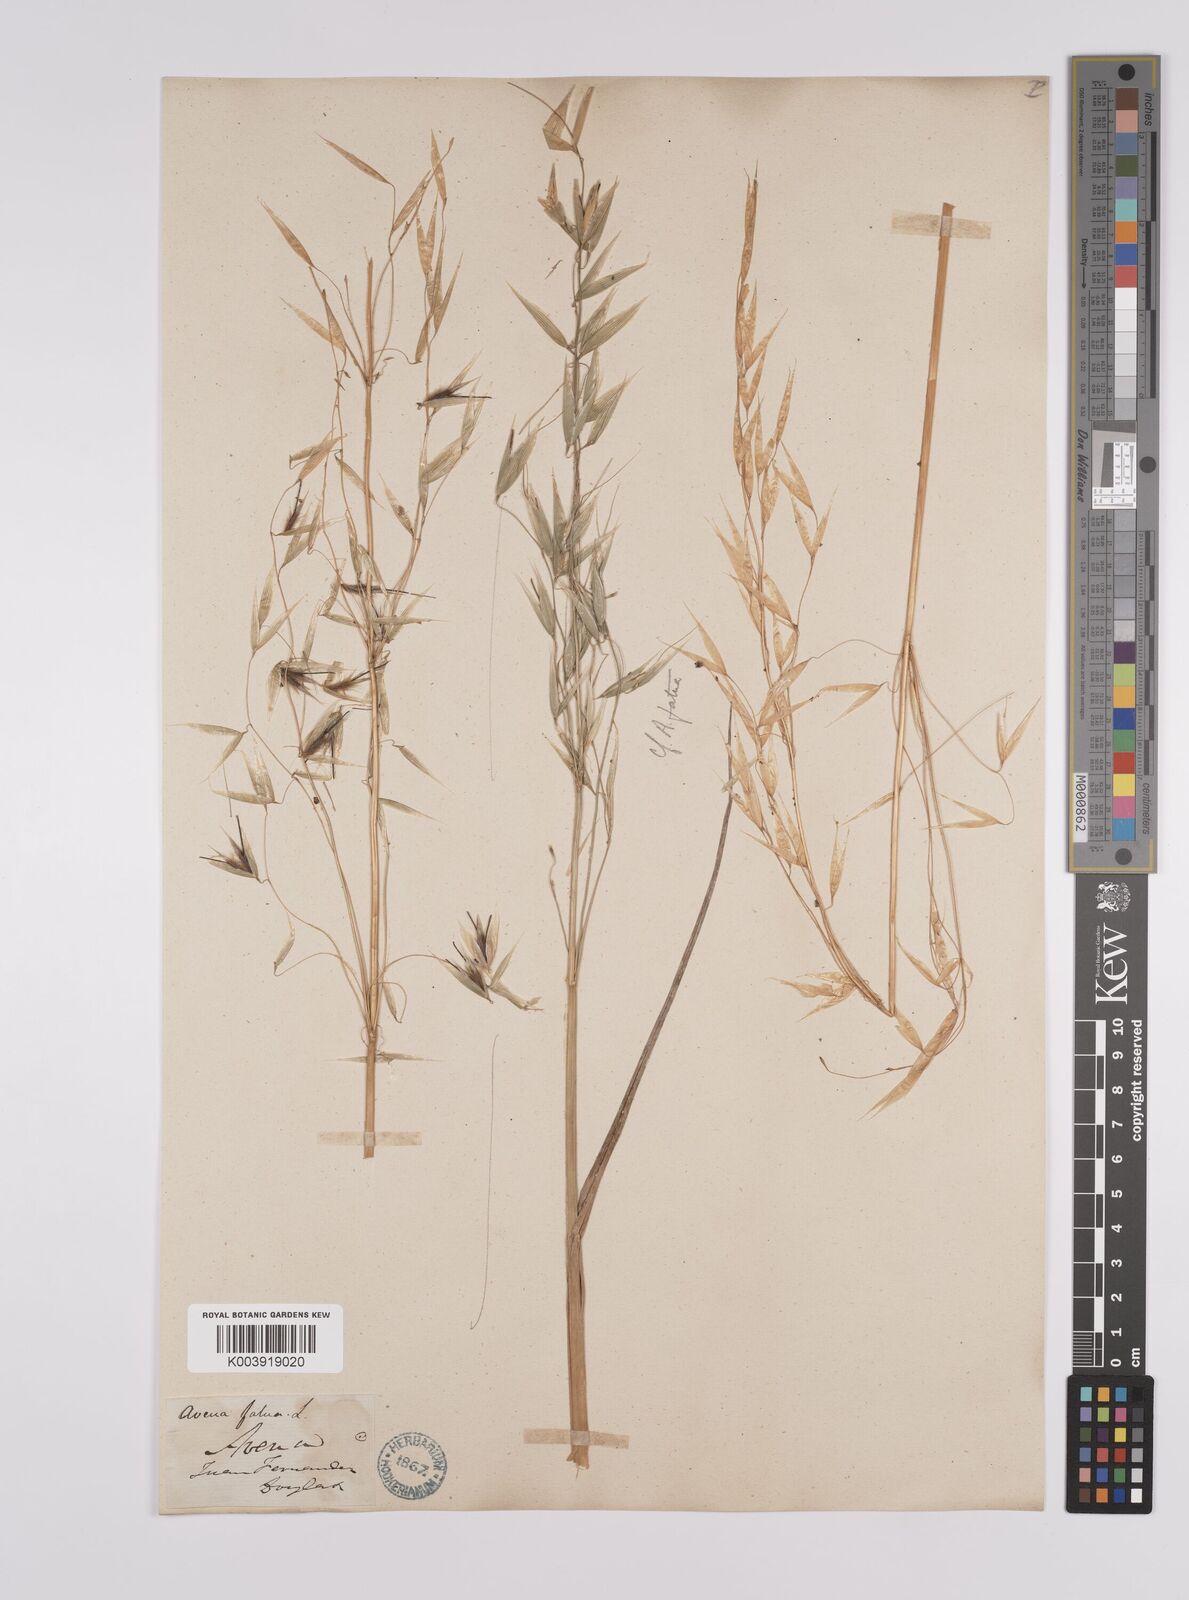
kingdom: Plantae
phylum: Tracheophyta
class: Liliopsida
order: Poales
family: Poaceae
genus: Avena
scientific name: Avena barbata
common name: Slender oat
